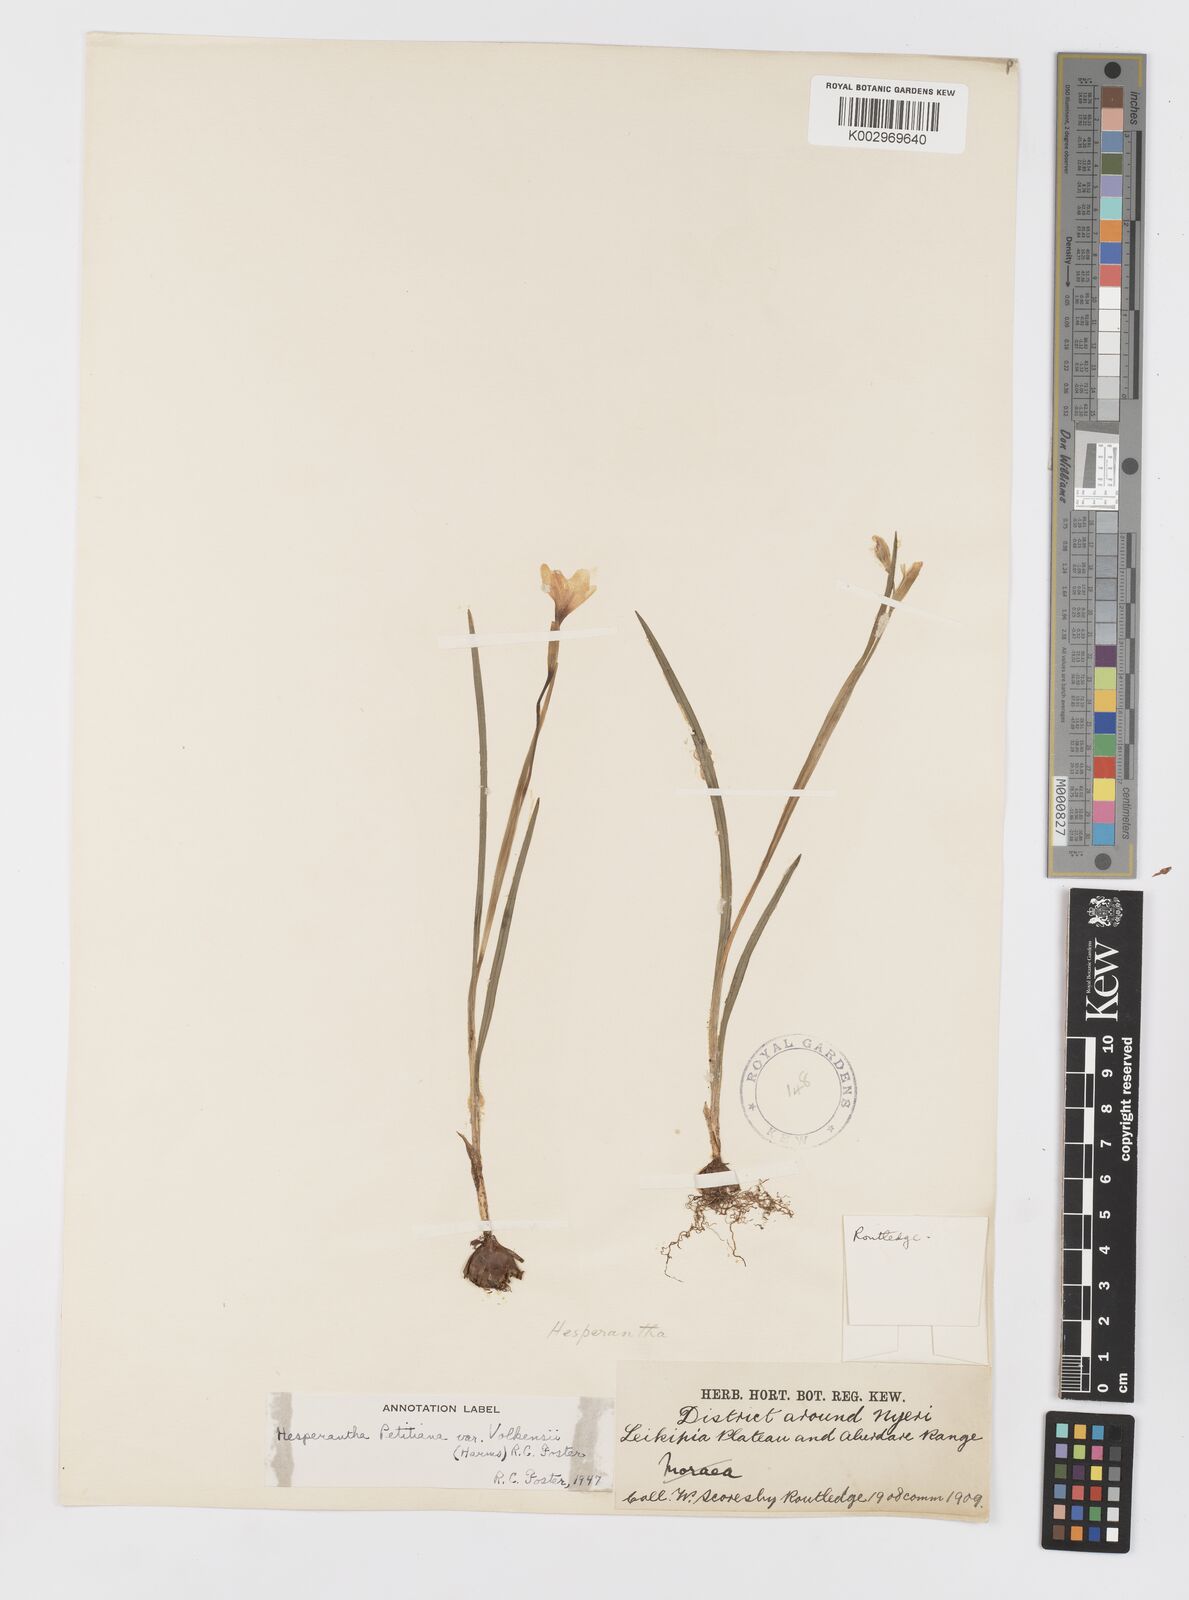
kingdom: Plantae
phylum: Tracheophyta
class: Liliopsida
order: Asparagales
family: Iridaceae
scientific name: Iridaceae
